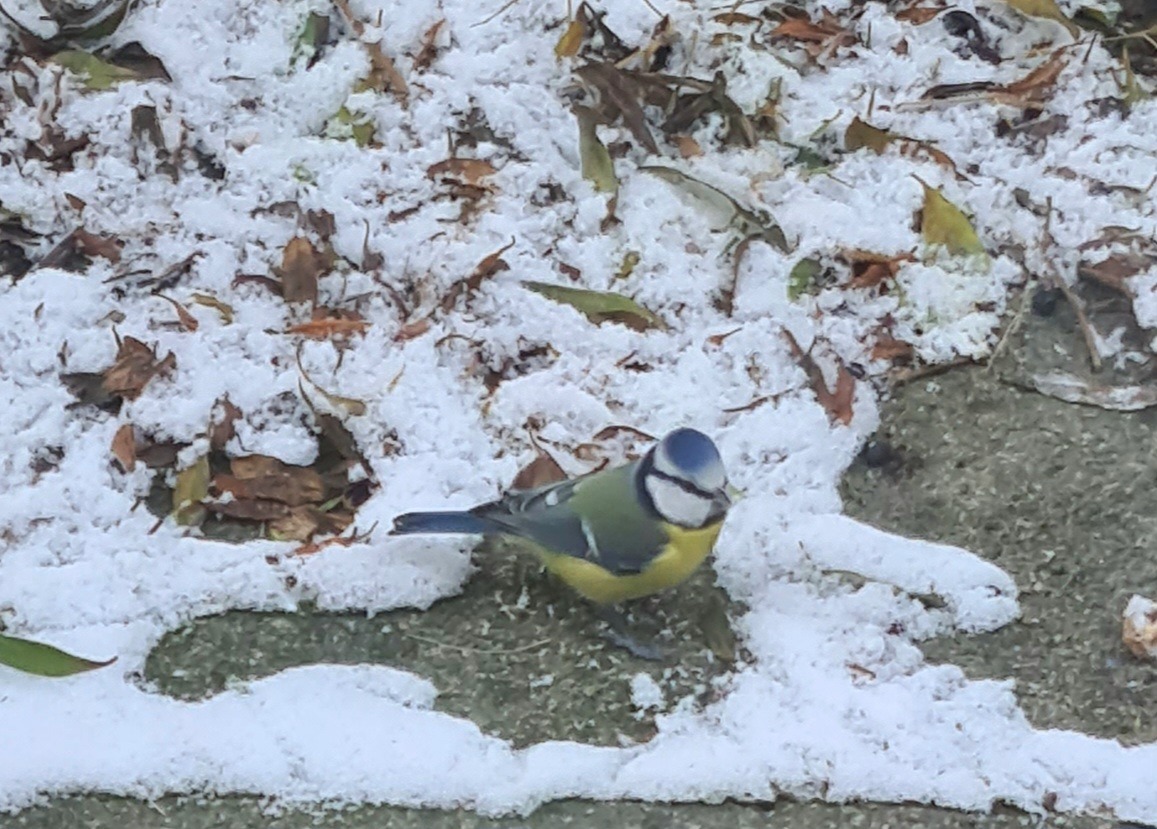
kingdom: Animalia
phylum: Chordata
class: Aves
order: Passeriformes
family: Paridae
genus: Cyanistes
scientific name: Cyanistes caeruleus
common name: Blåmejse
